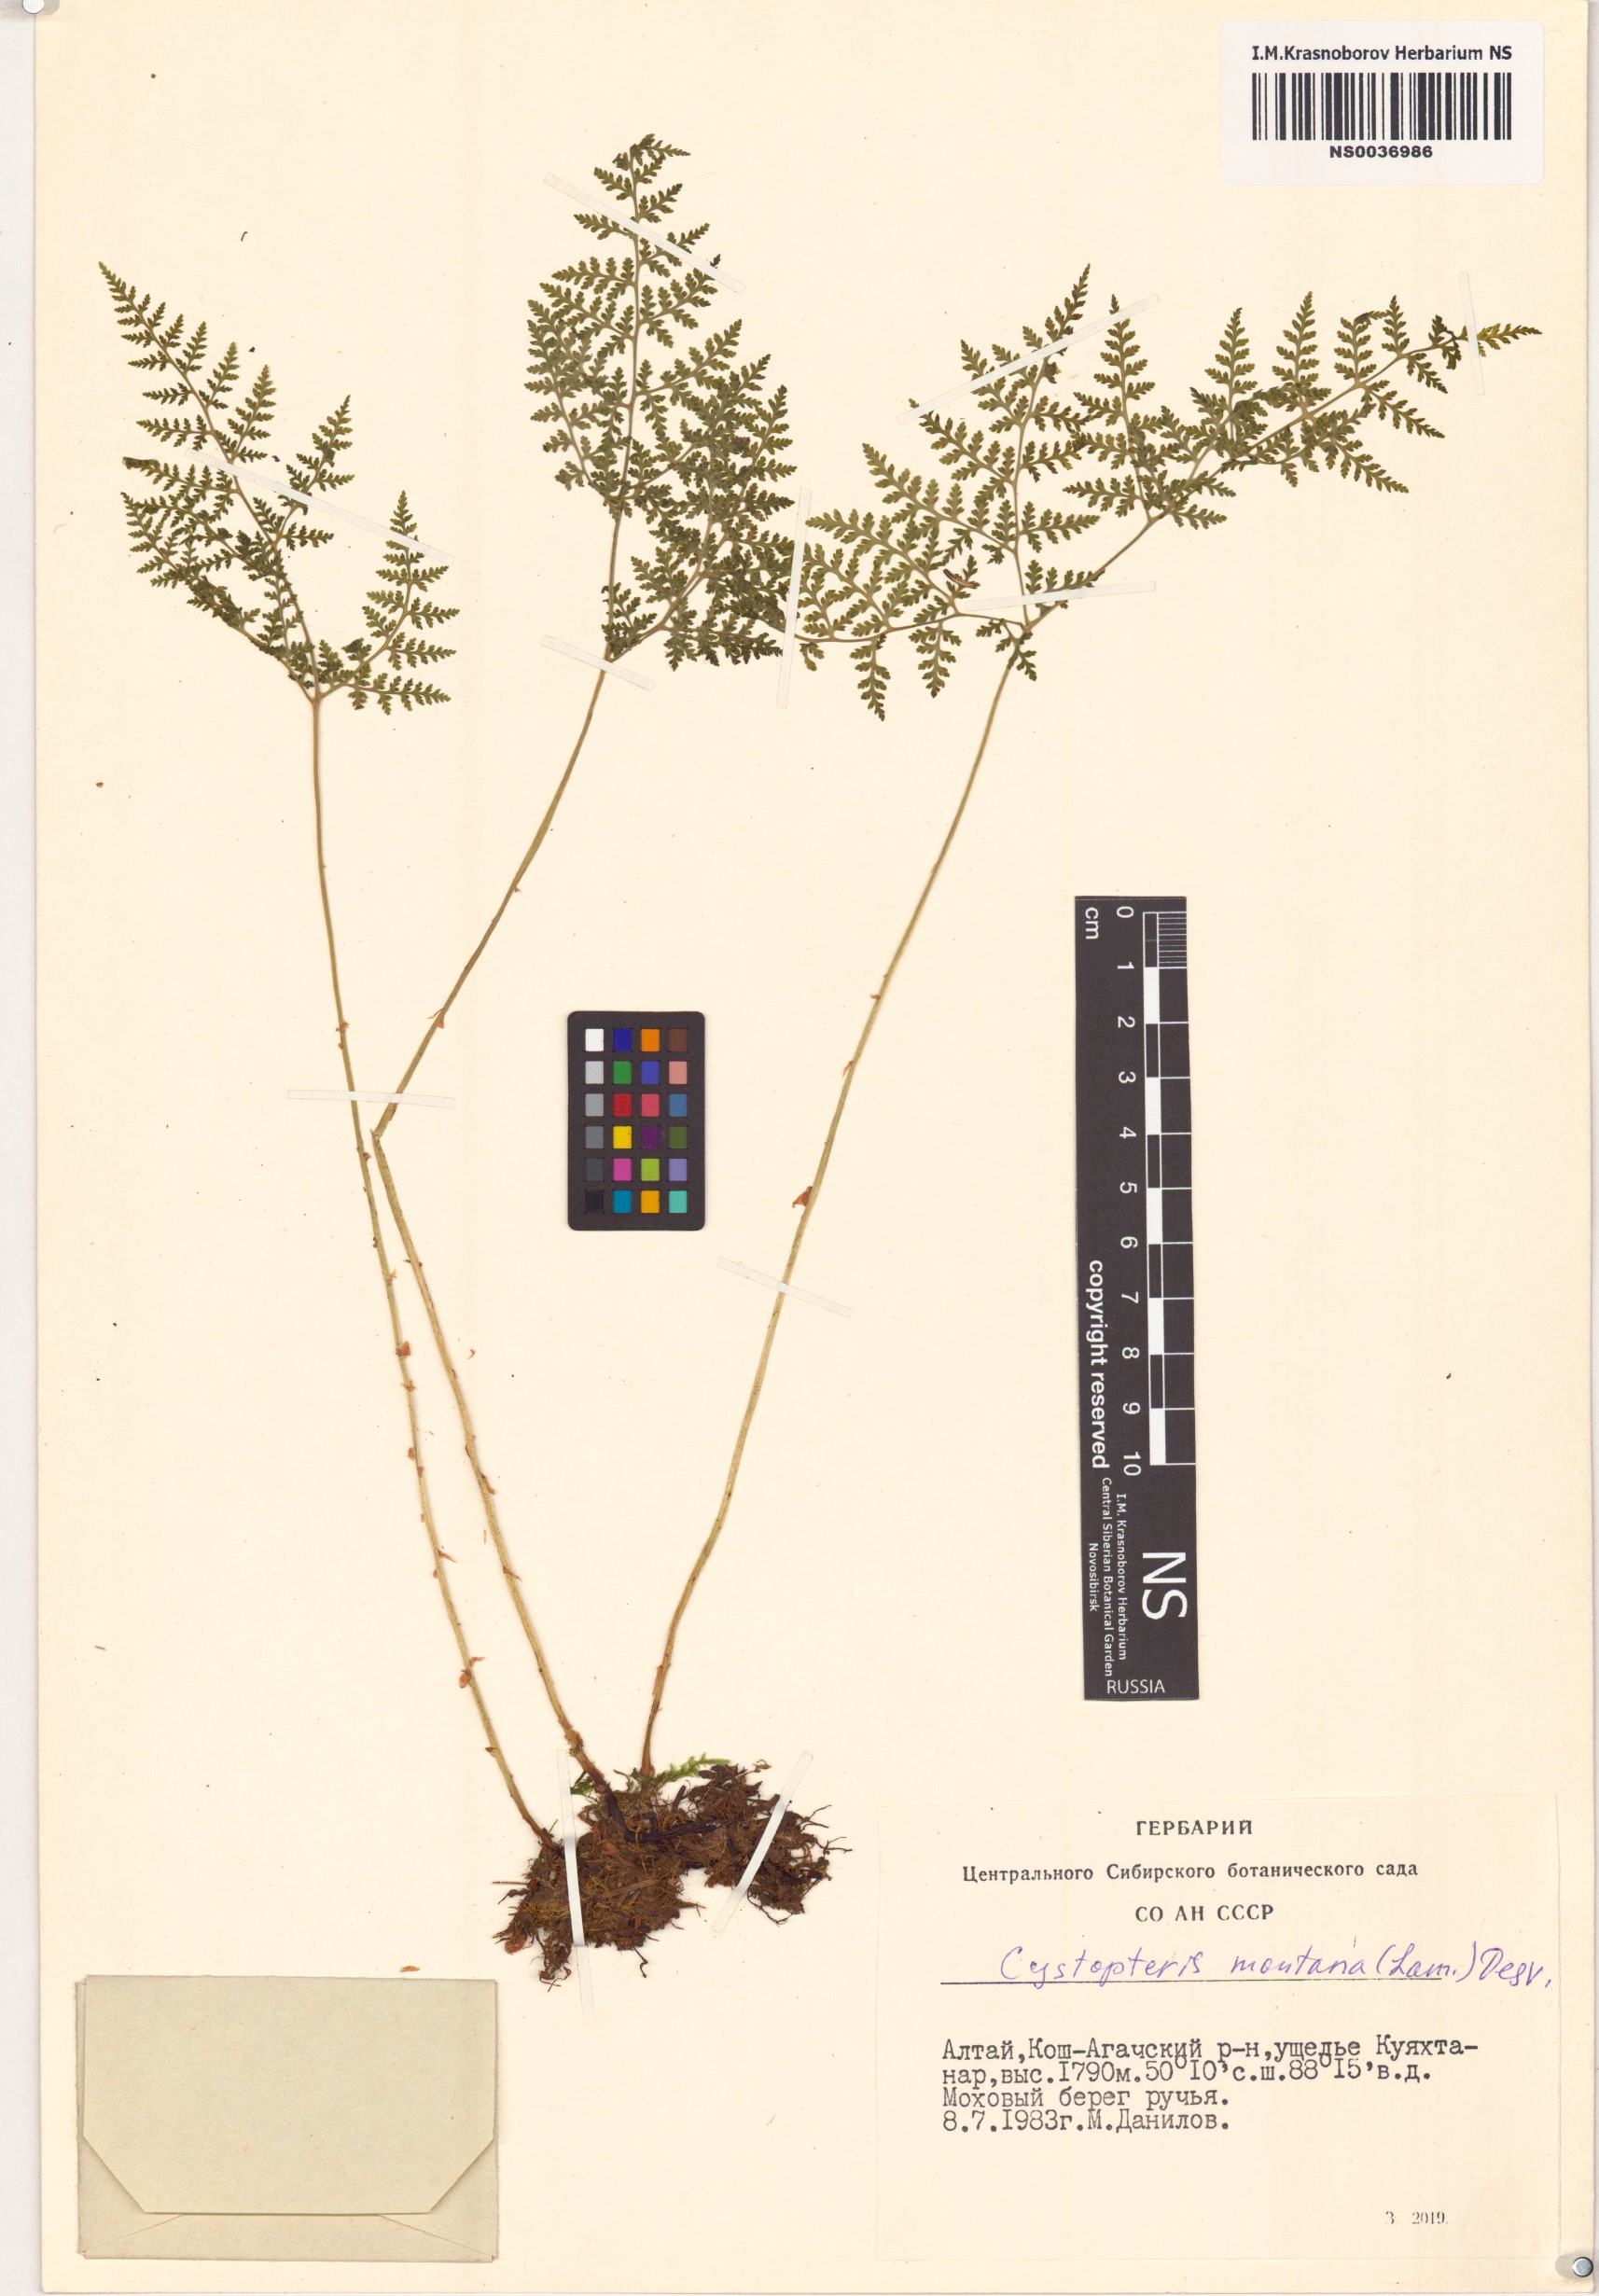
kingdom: Plantae
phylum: Tracheophyta
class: Polypodiopsida
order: Polypodiales
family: Cystopteridaceae
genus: Cystopteris
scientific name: Cystopteris montana
